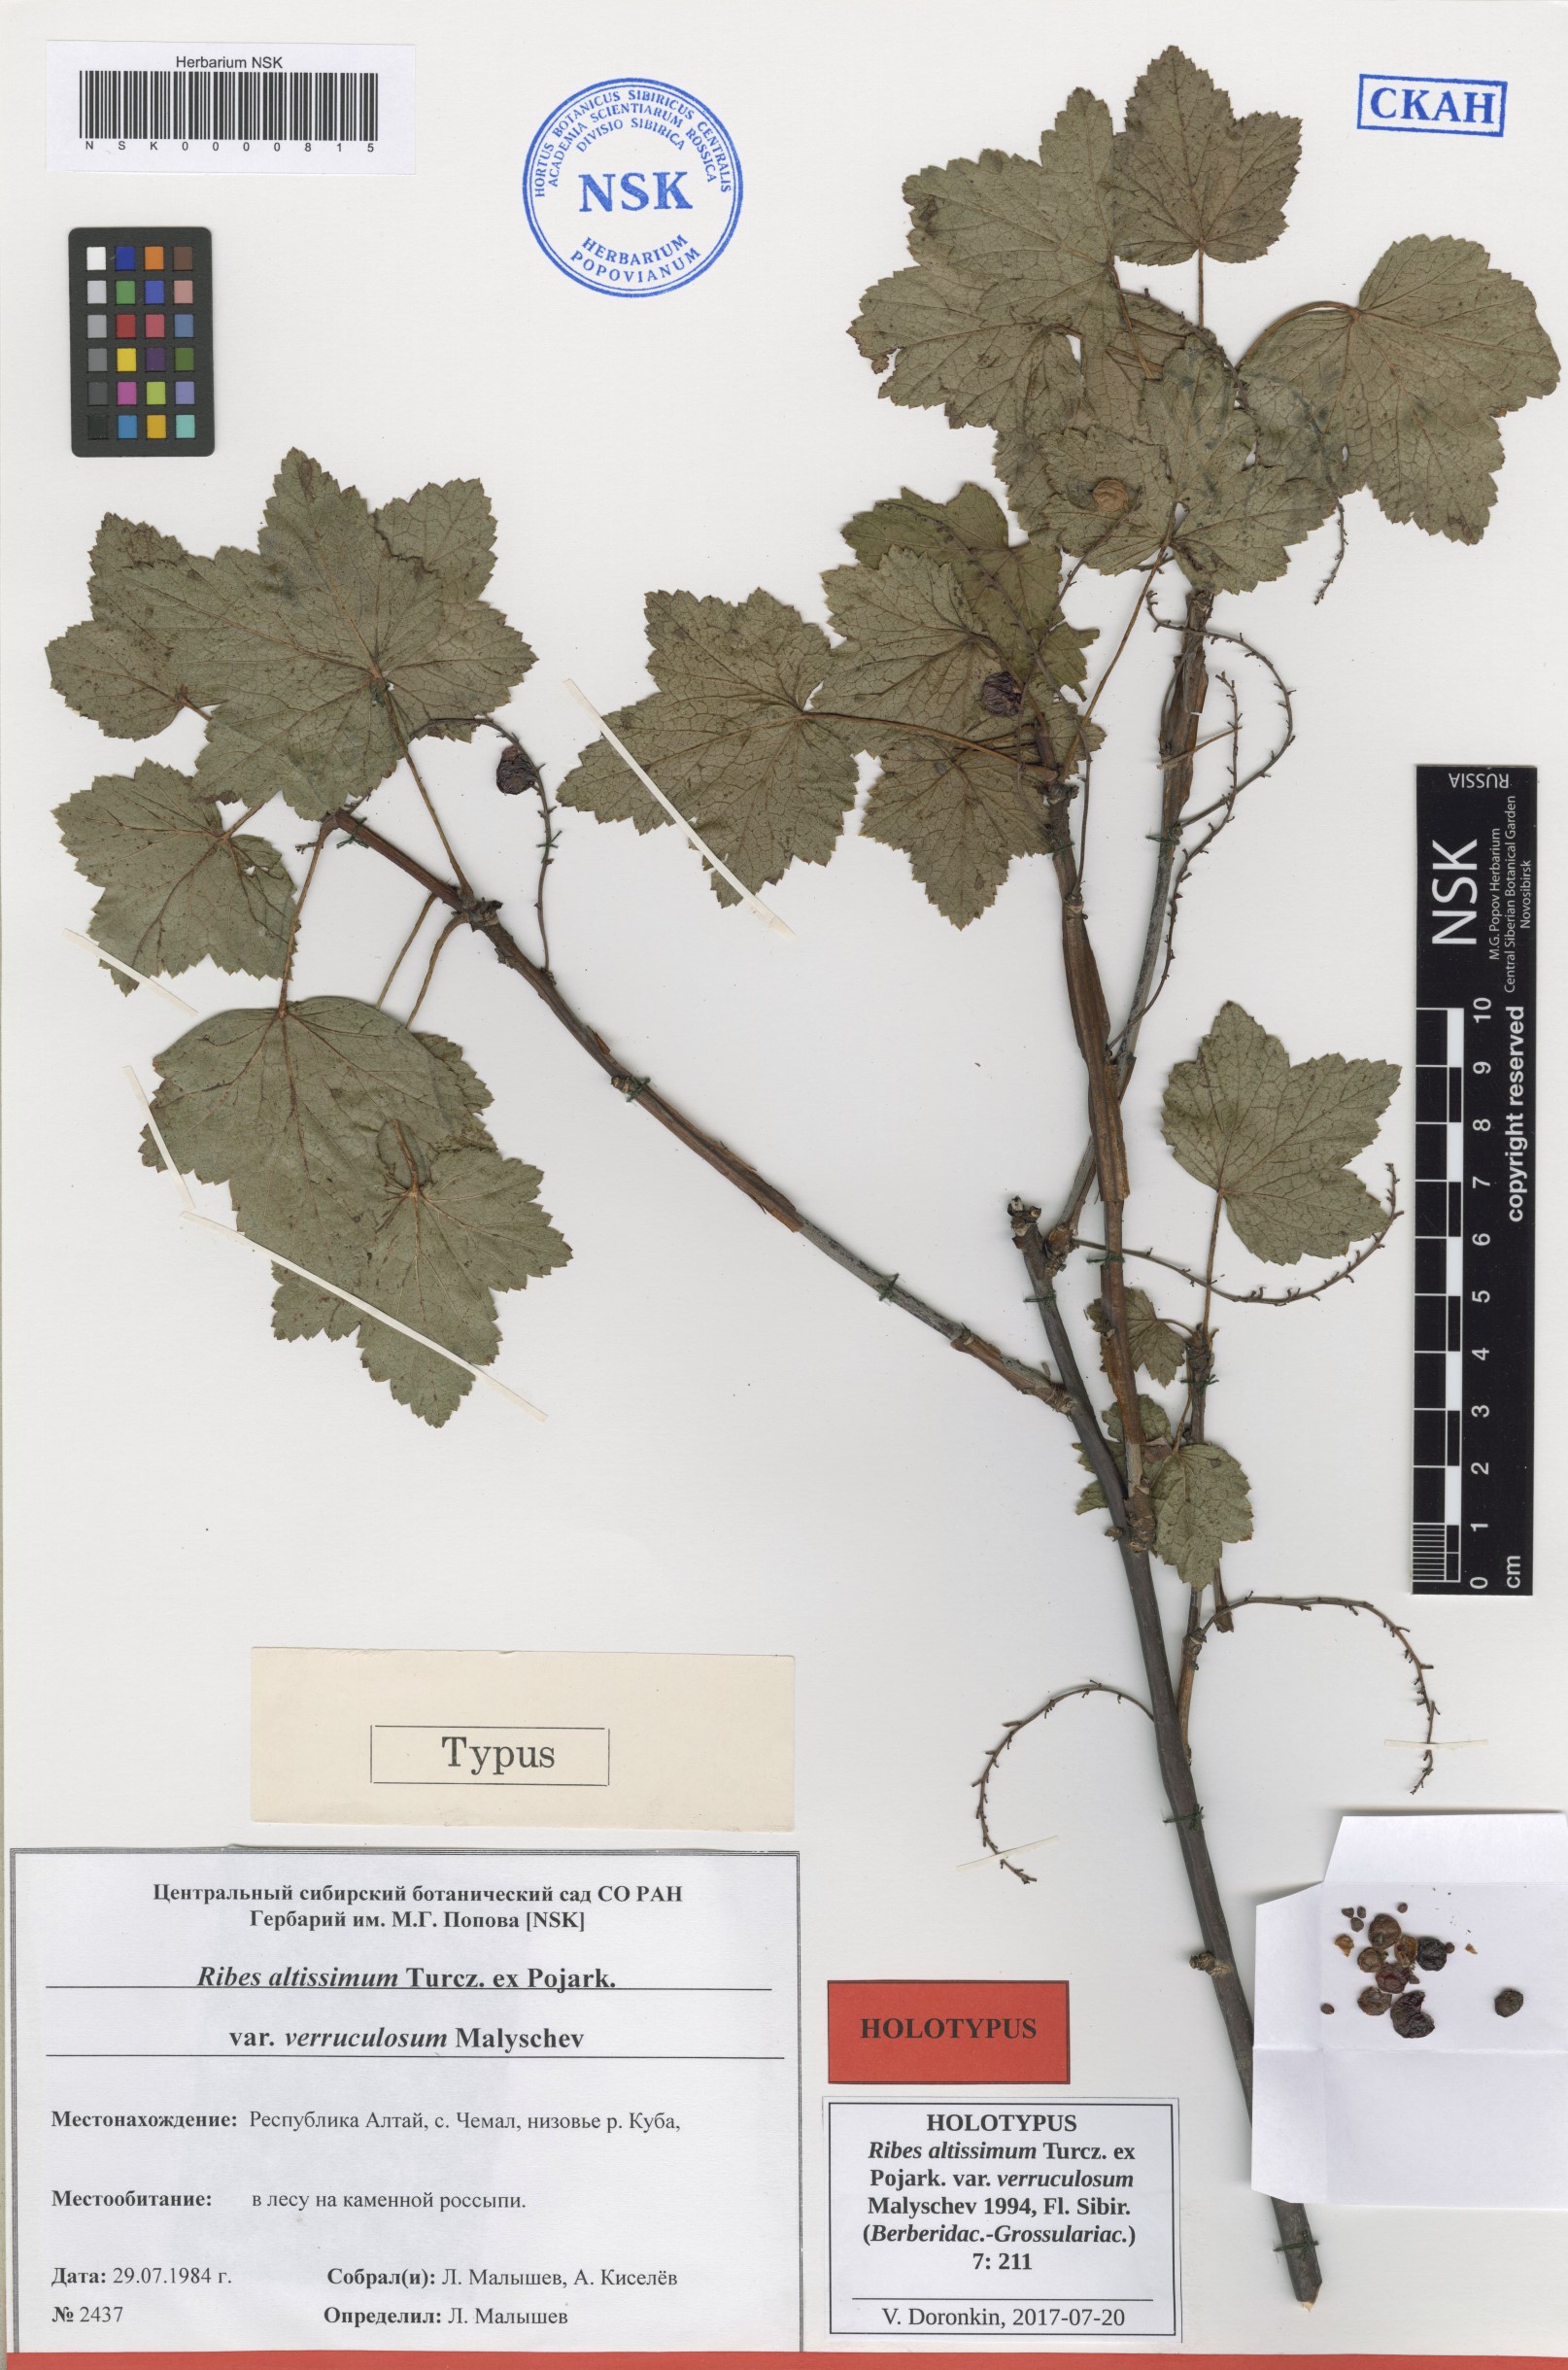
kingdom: Plantae
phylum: Tracheophyta
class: Magnoliopsida
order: Saxifragales
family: Grossulariaceae
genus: Ribes
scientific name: Ribes petraeum
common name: Rock currant
